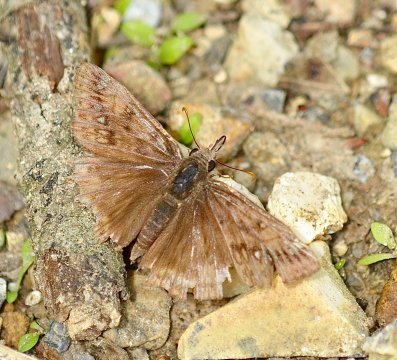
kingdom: Animalia
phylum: Arthropoda
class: Insecta
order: Lepidoptera
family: Hesperiidae
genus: Gesta
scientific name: Gesta
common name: Juvenal's Duskywing
